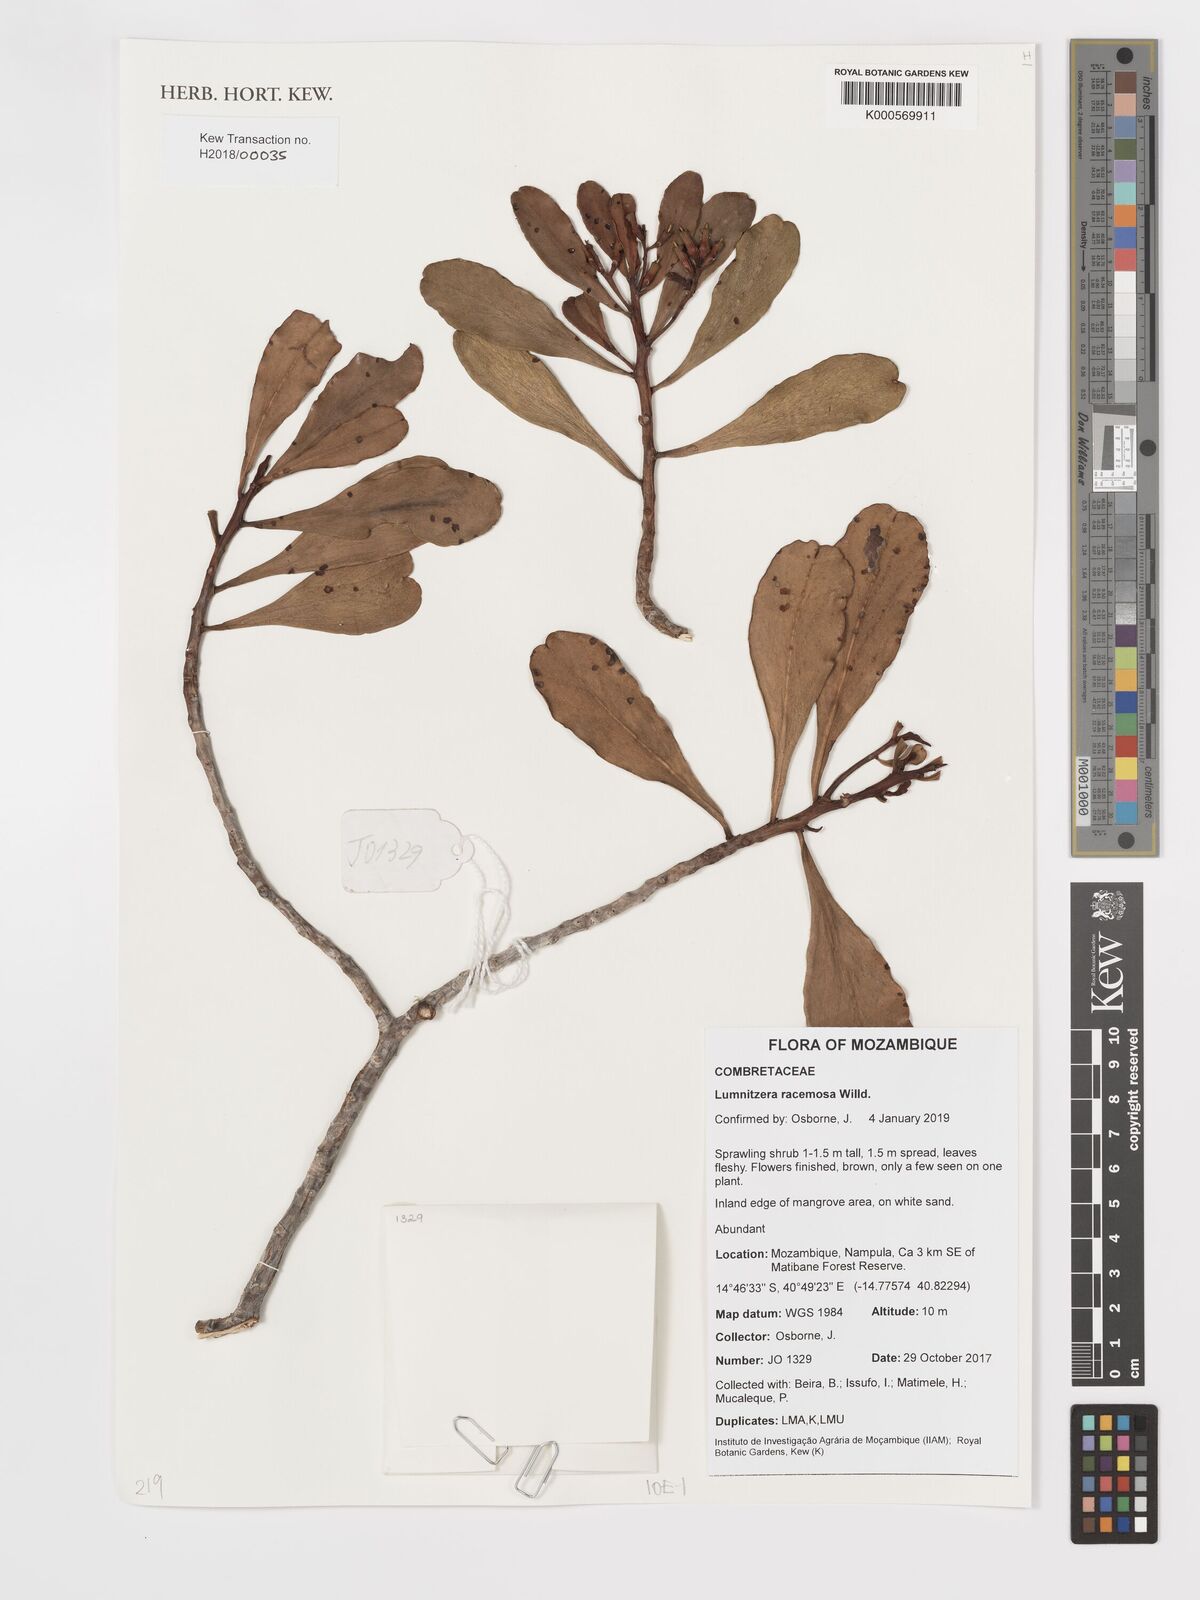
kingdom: Plantae
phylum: Tracheophyta
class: Magnoliopsida
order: Myrtales
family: Combretaceae
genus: Lumnitzera
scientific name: Lumnitzera racemosa
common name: White-flowered black mangrove
